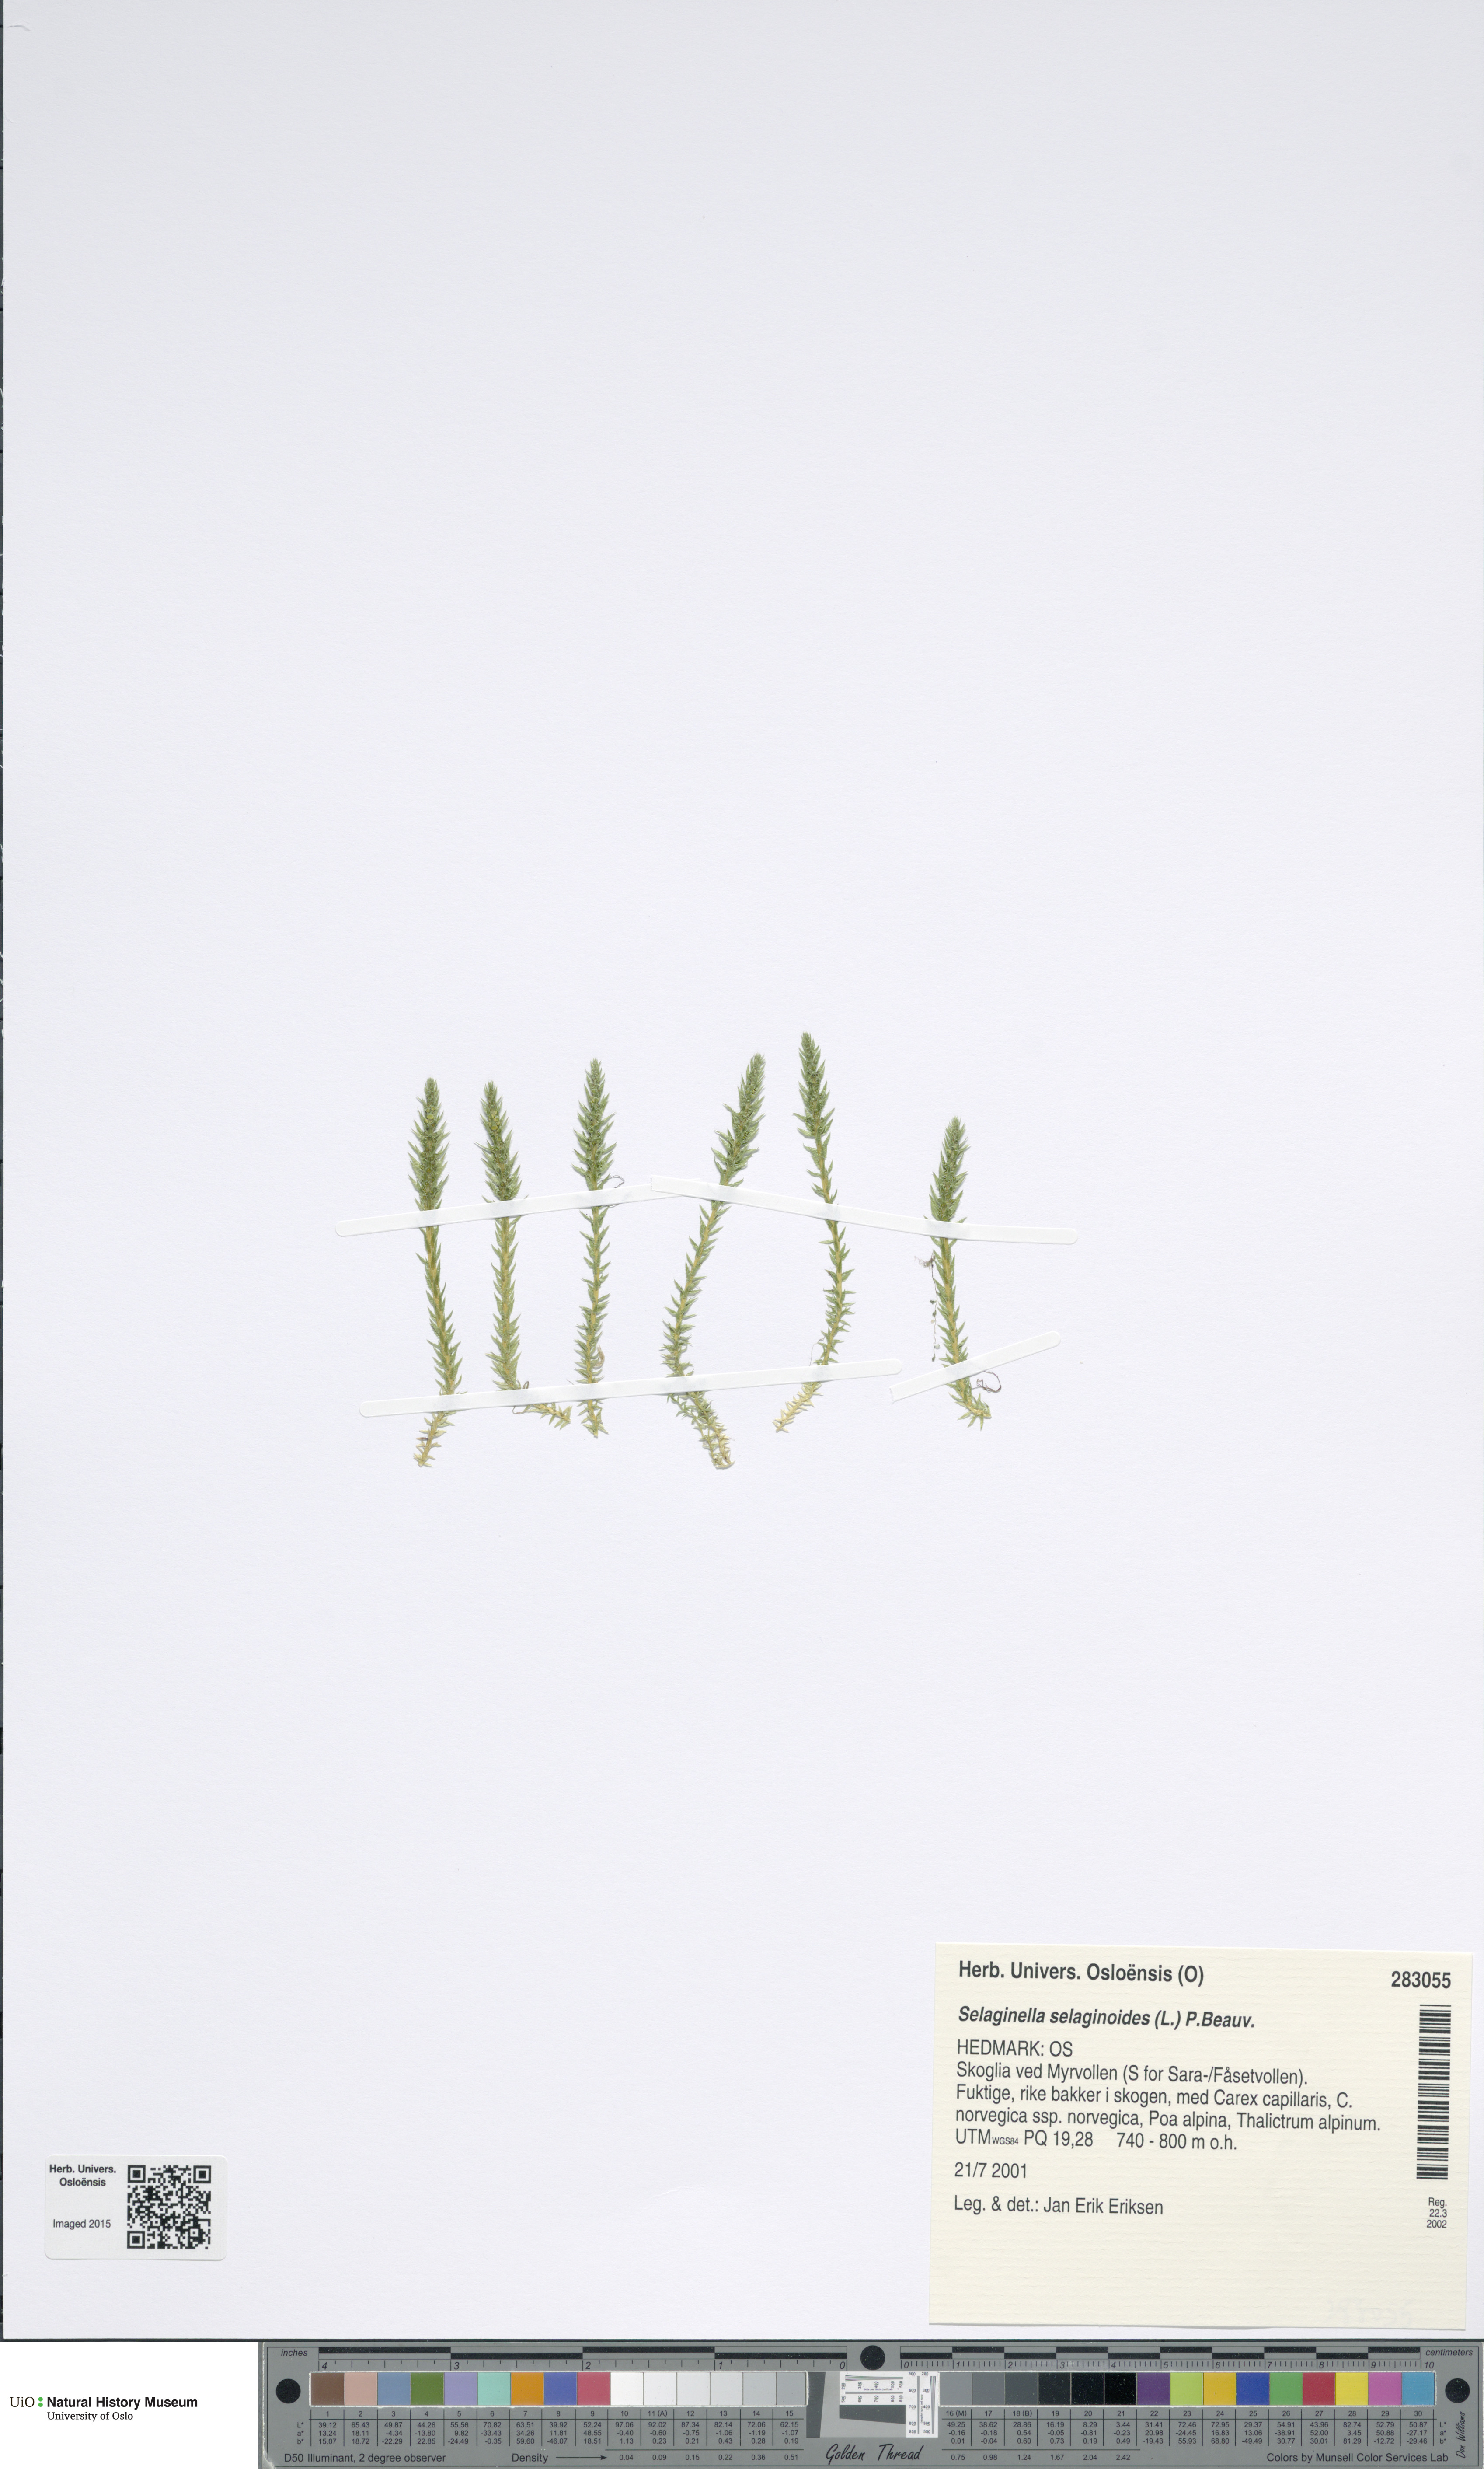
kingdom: Plantae
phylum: Tracheophyta
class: Lycopodiopsida
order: Selaginellales
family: Selaginellaceae
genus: Selaginella
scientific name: Selaginella selaginoides
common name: Prickly mountain-moss
